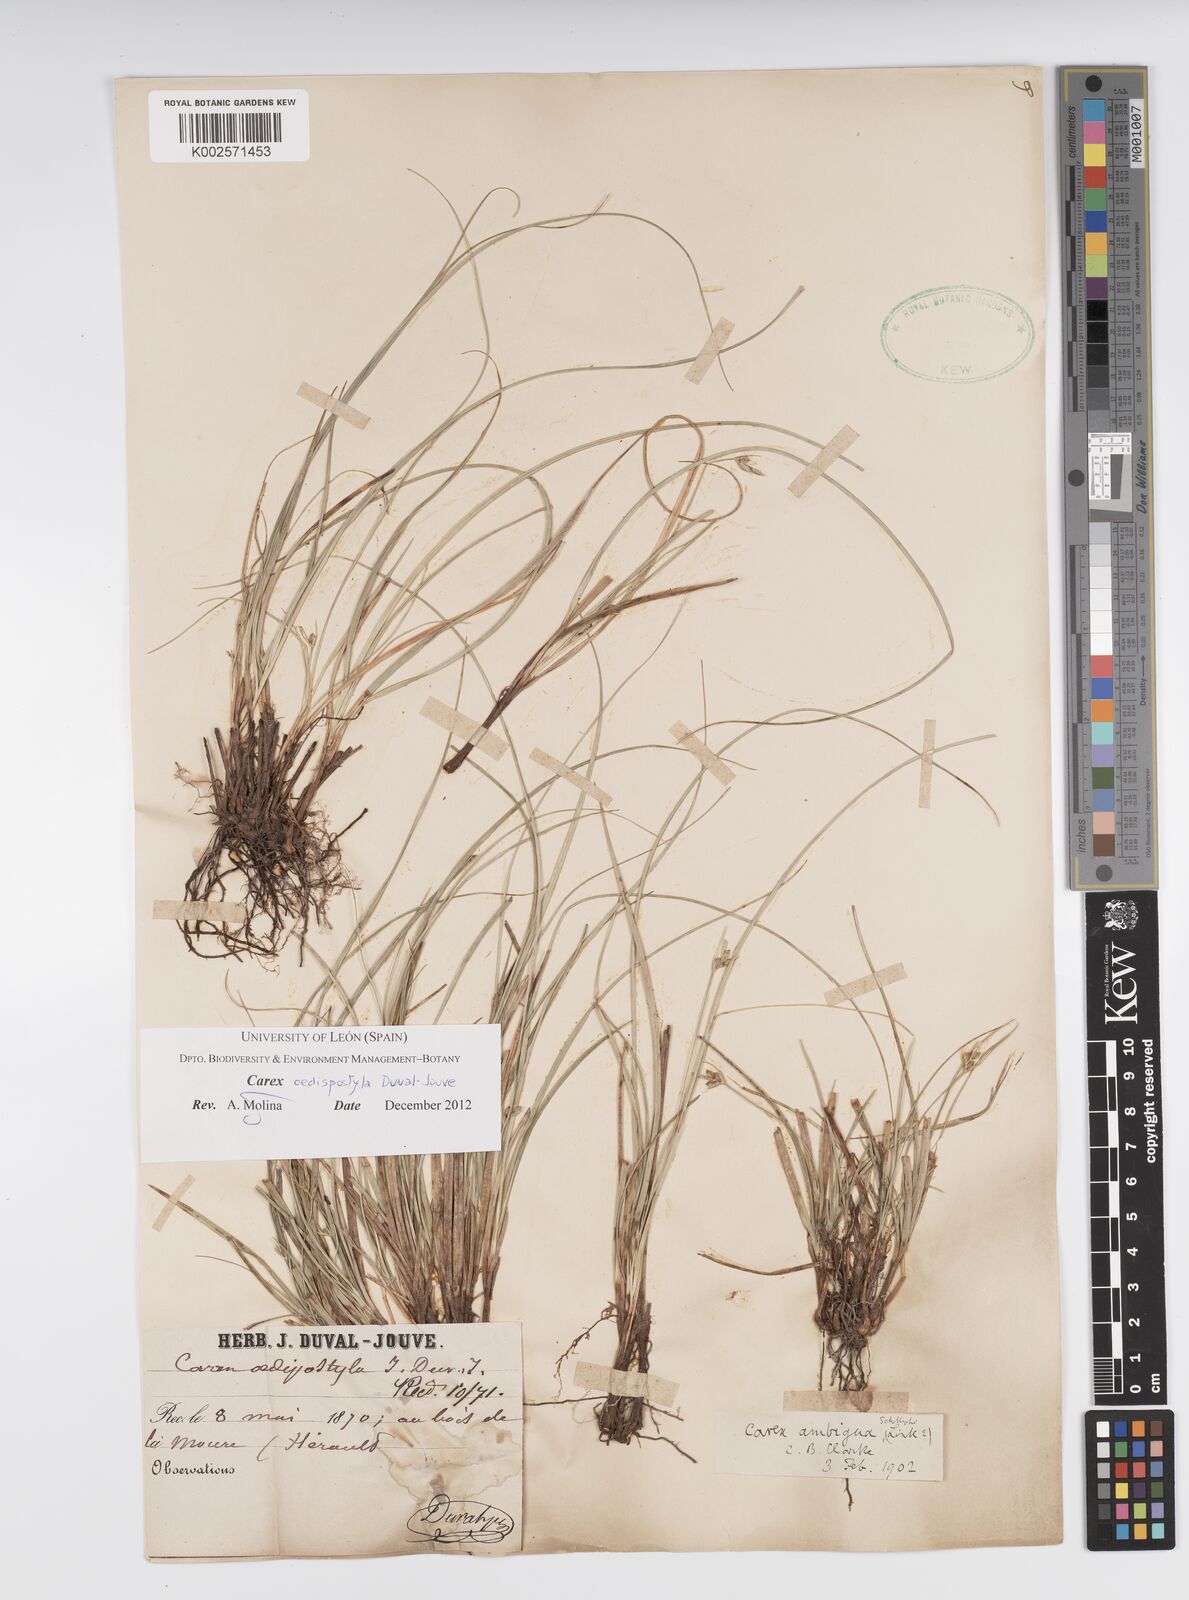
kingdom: Plantae
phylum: Tracheophyta
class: Liliopsida
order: Poales
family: Cyperaceae
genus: Carex
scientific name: Carex oedipostyla
